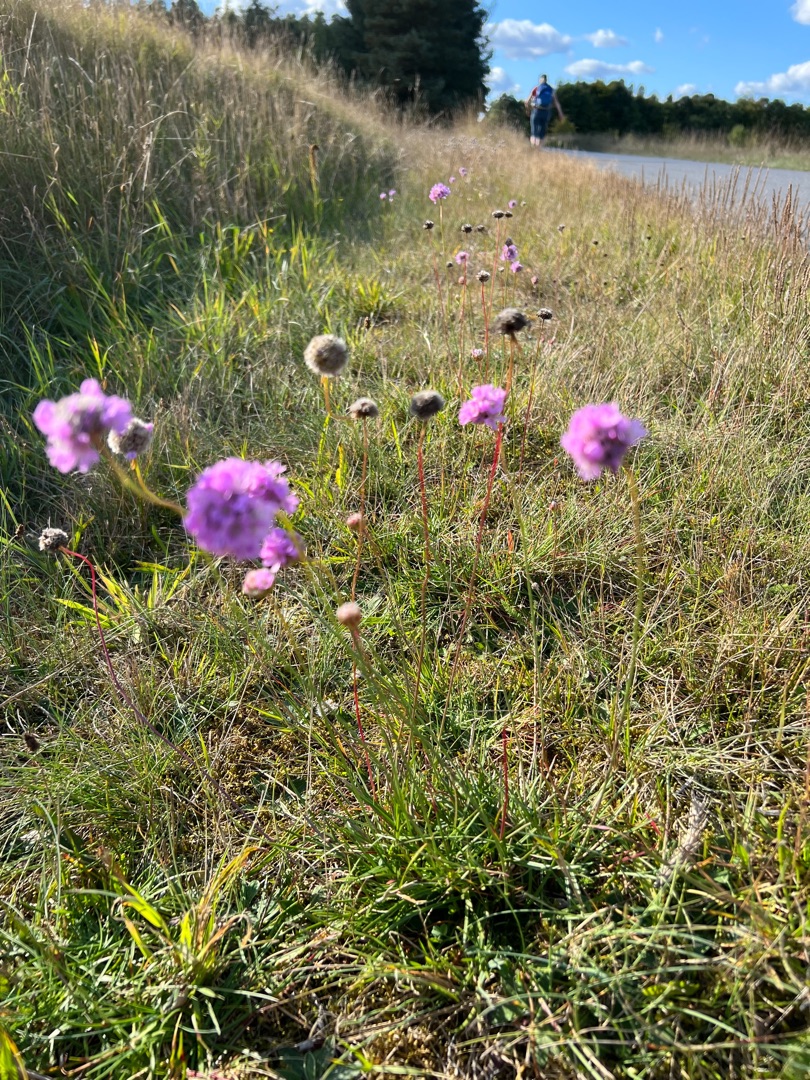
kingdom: Plantae
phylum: Tracheophyta
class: Magnoliopsida
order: Caryophyllales
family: Plumbaginaceae
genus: Armeria
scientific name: Armeria maritima
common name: Engelskgræs
